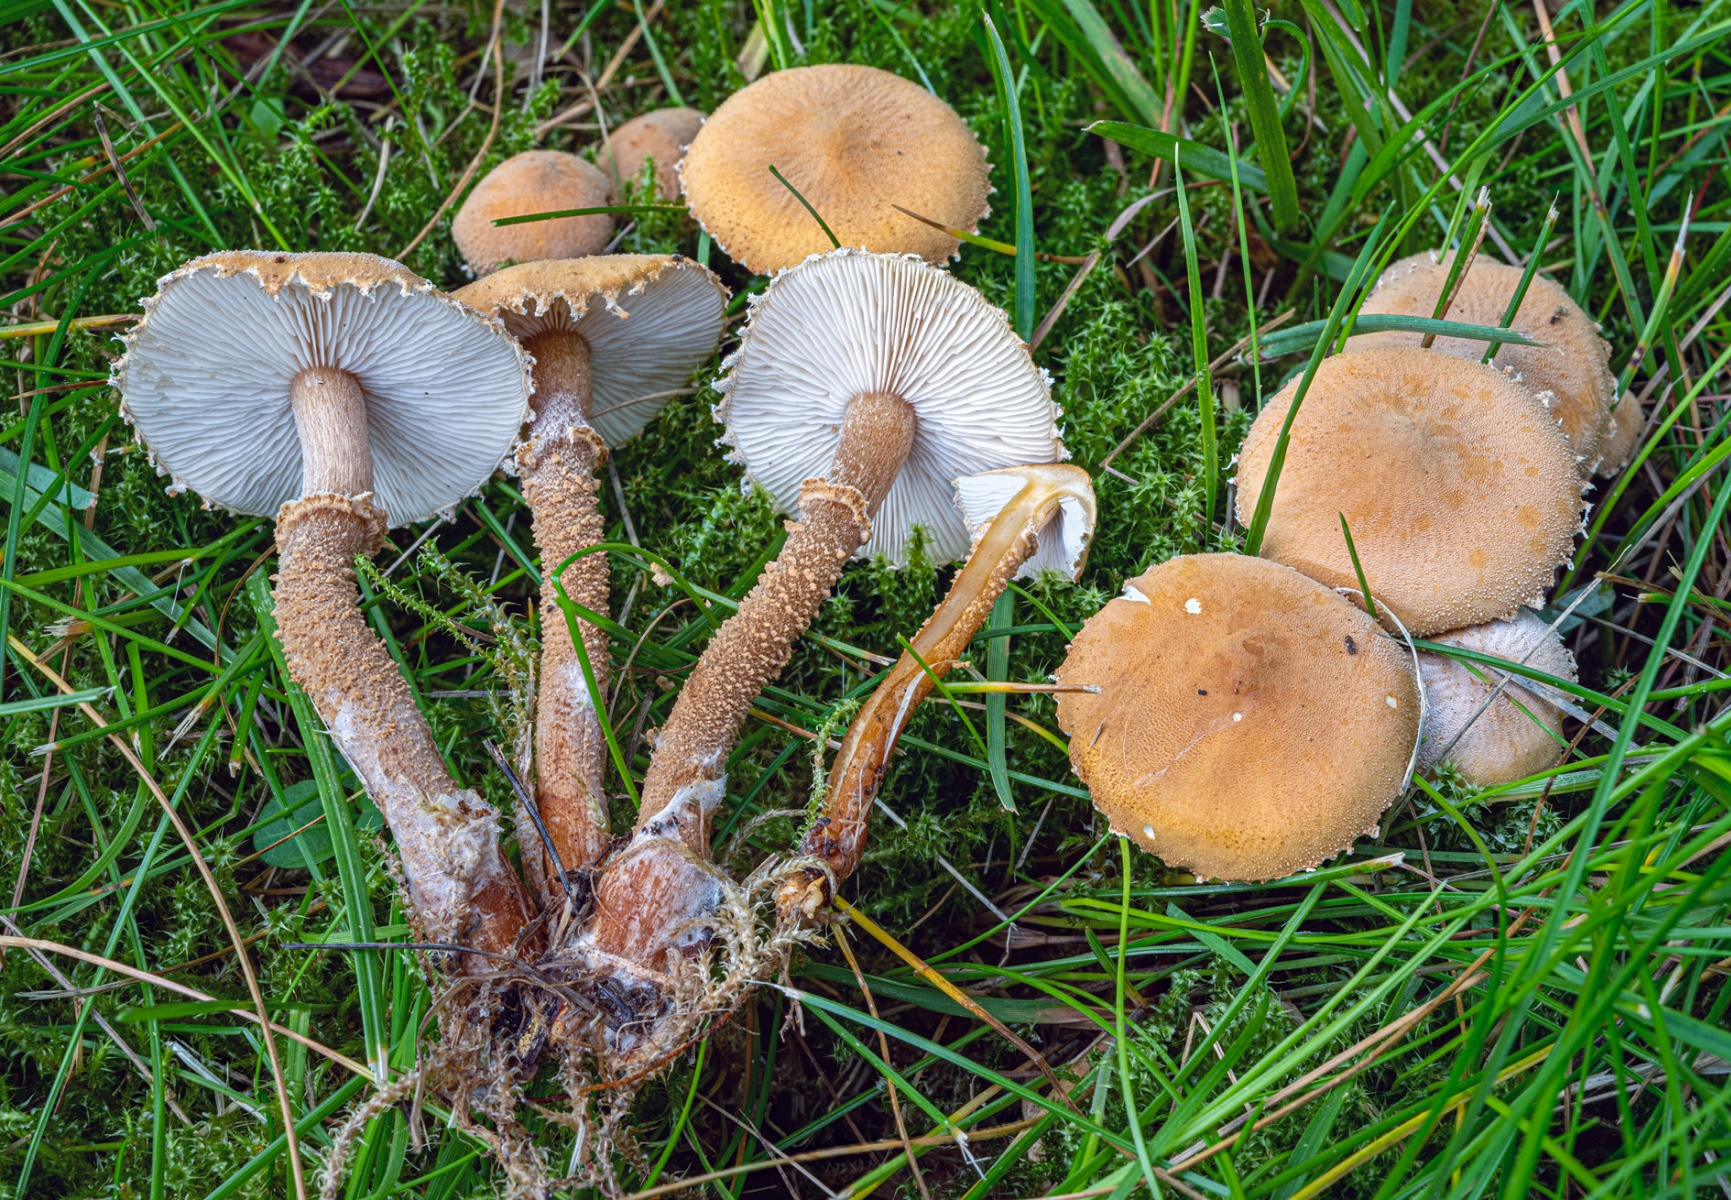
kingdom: Fungi
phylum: Basidiomycota
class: Agaricomycetes
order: Agaricales
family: Tricholomataceae
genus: Cystoderma
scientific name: Cystoderma amianthinum
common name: okkergul grynhat
